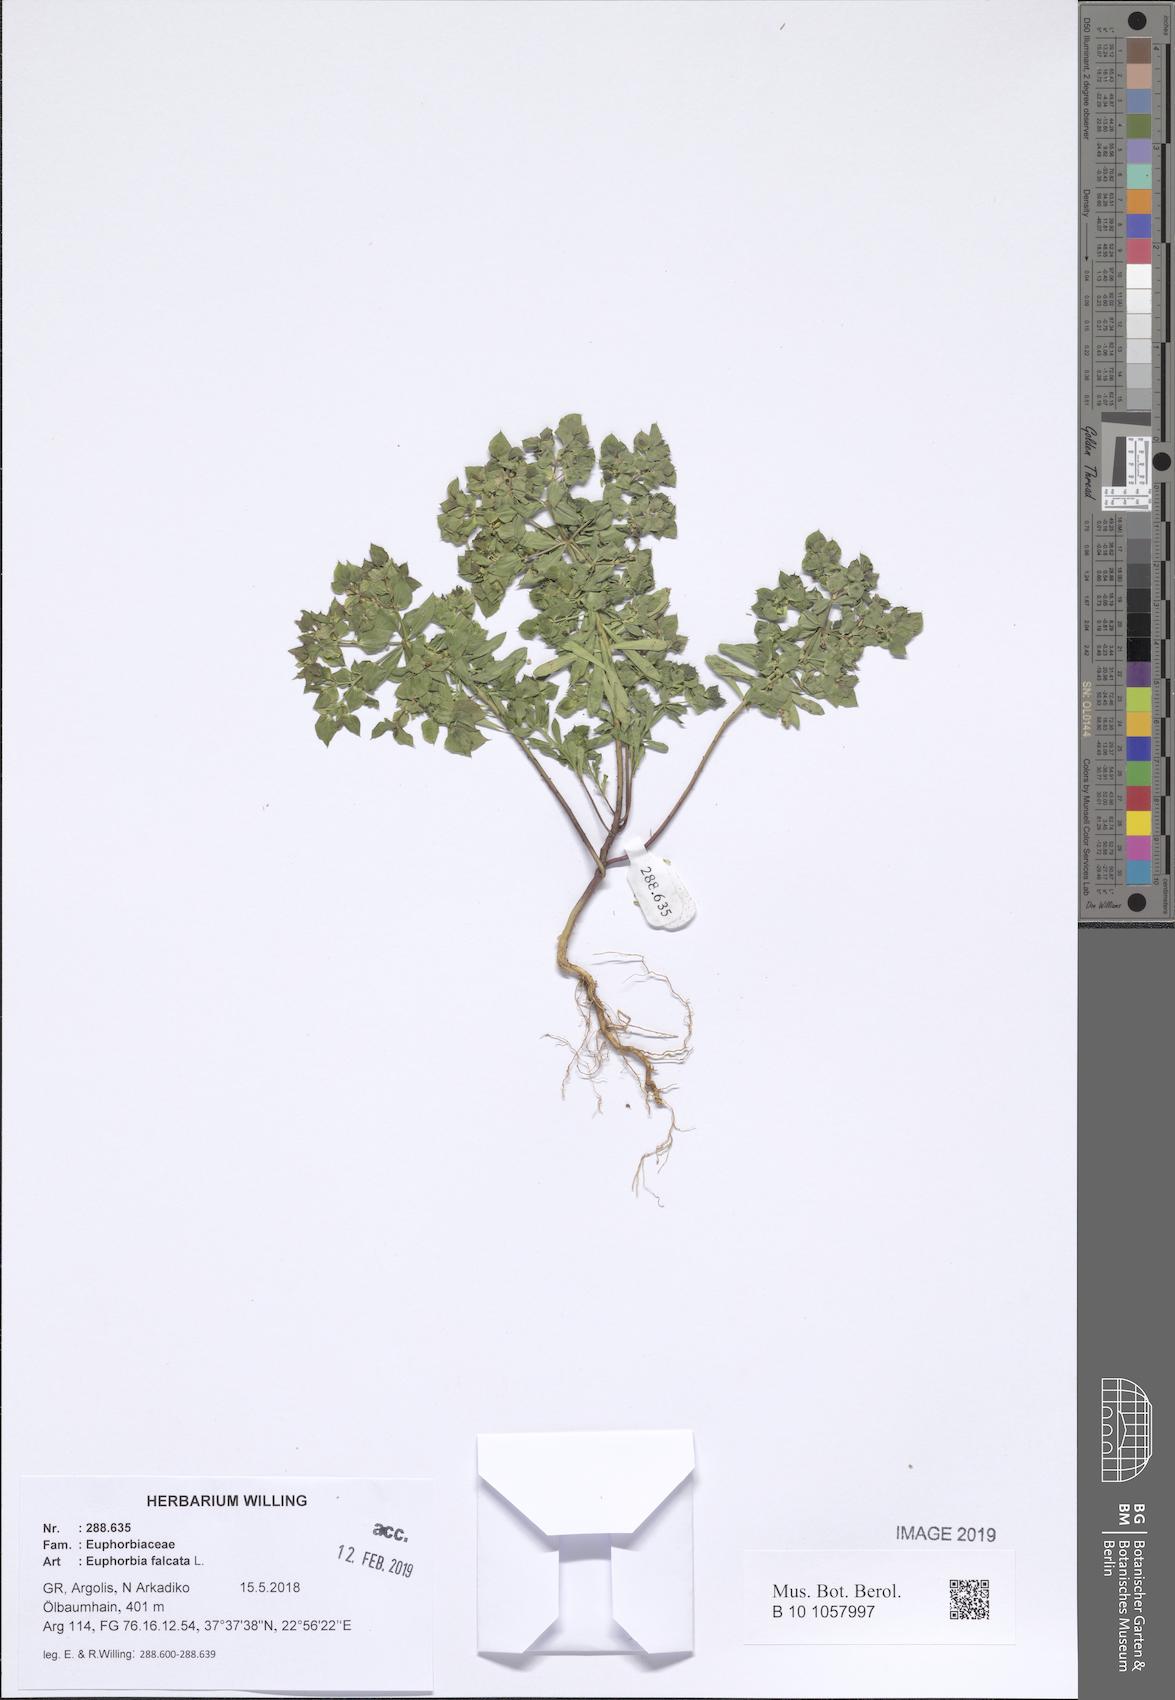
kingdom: Plantae
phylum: Tracheophyta
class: Magnoliopsida
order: Malpighiales
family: Euphorbiaceae
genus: Euphorbia
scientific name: Euphorbia falcata
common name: Sickle spurge
